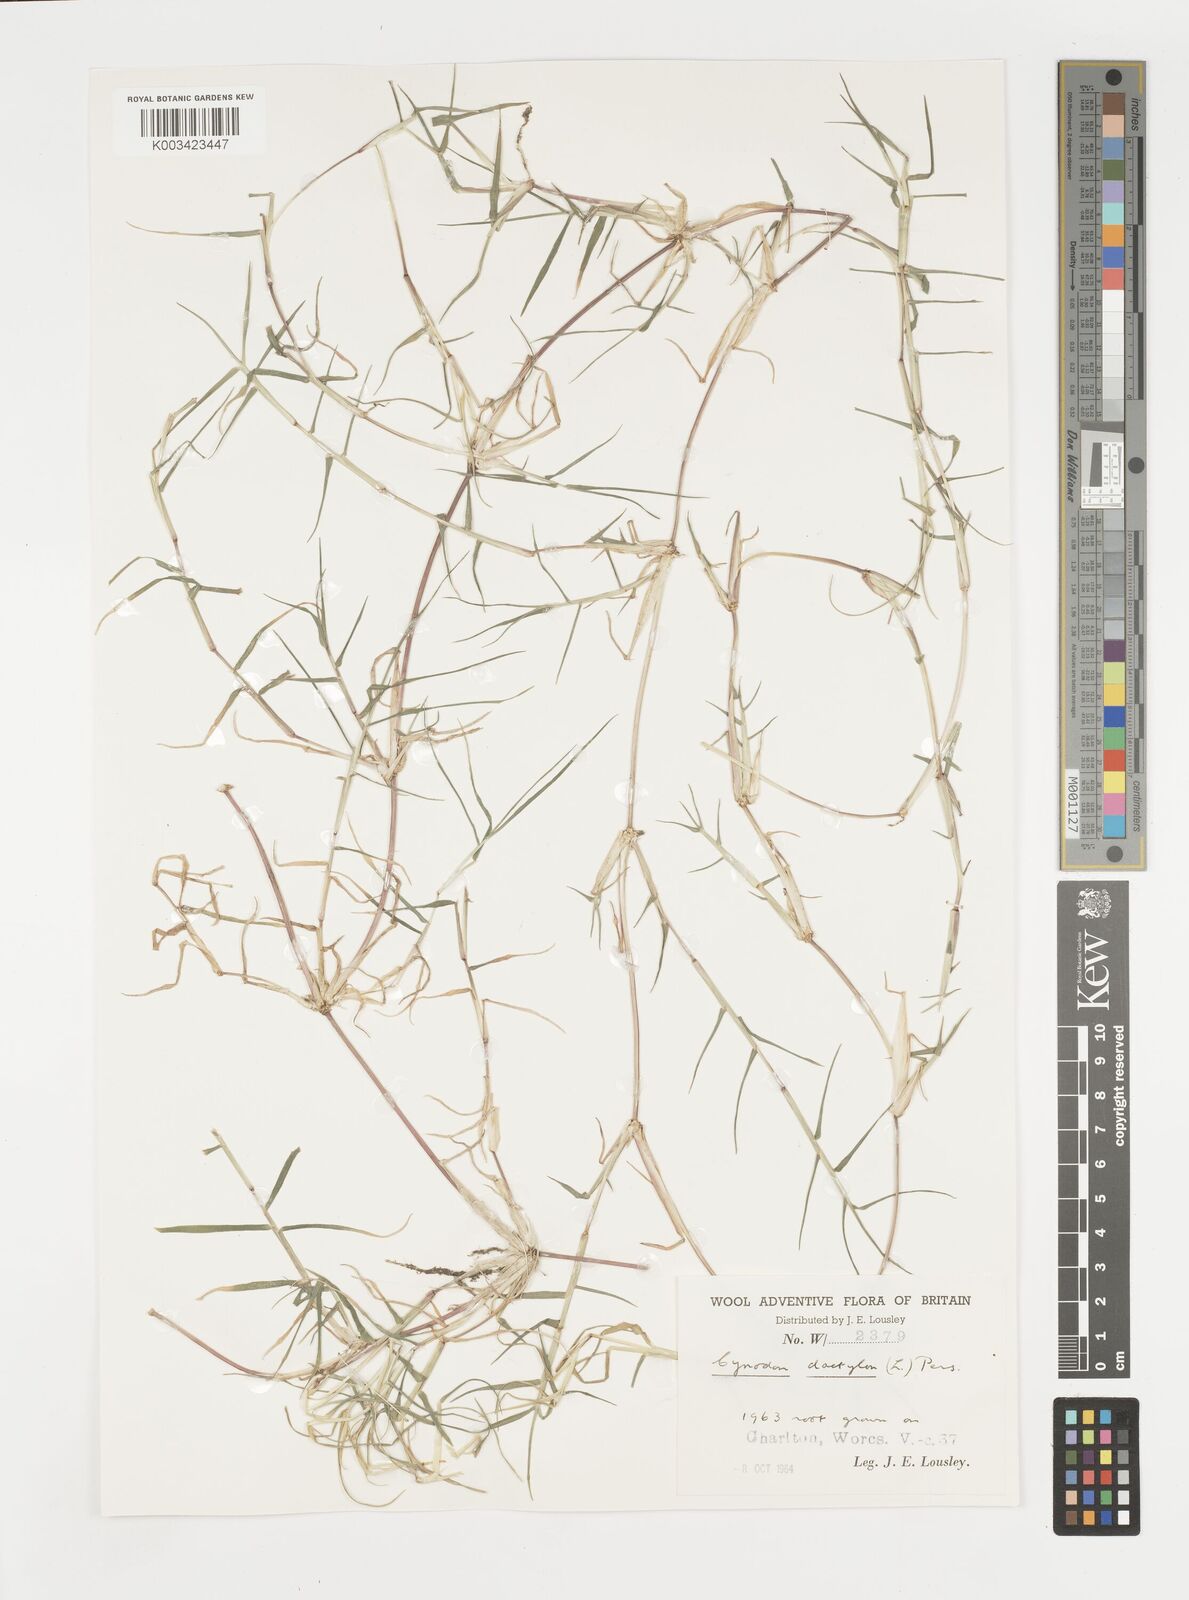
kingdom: Plantae
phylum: Tracheophyta
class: Liliopsida
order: Poales
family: Poaceae
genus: Cynodon
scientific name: Cynodon dactylon
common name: Bermuda grass
